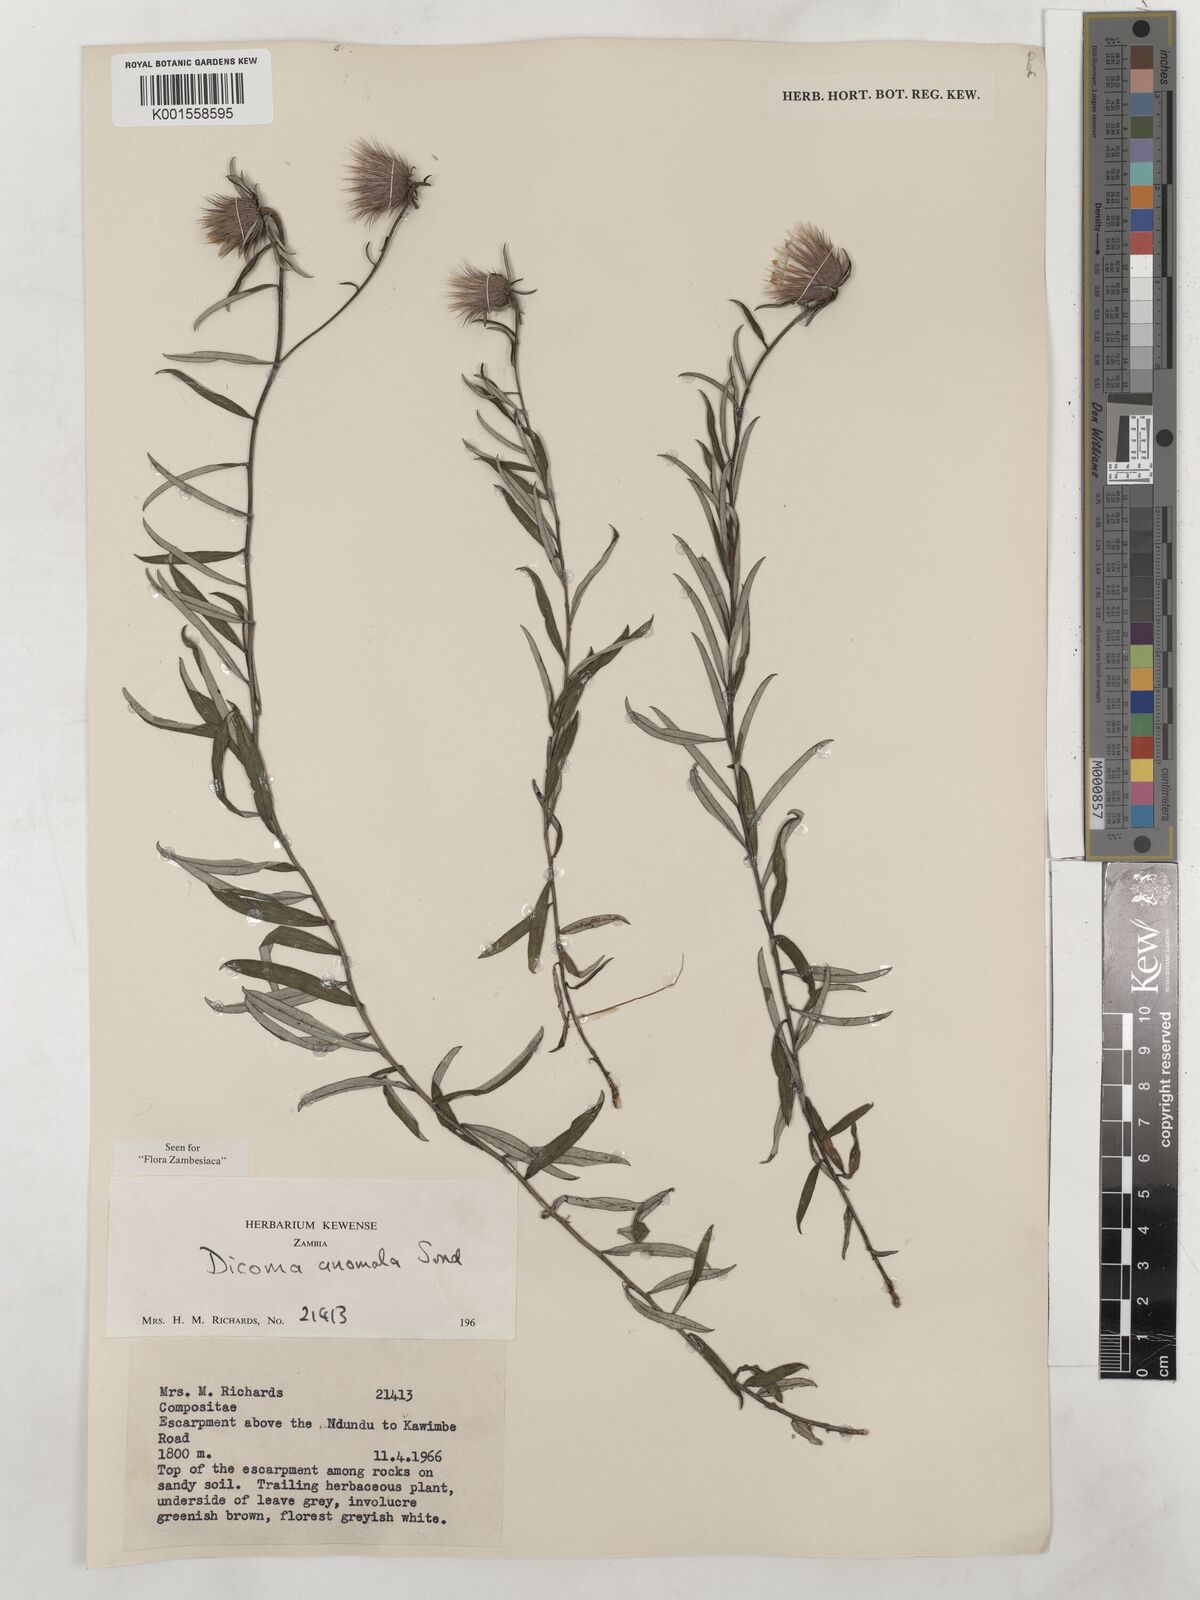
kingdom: Plantae
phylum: Tracheophyta
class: Magnoliopsida
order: Asterales
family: Asteraceae
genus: Dicoma
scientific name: Dicoma anomala
